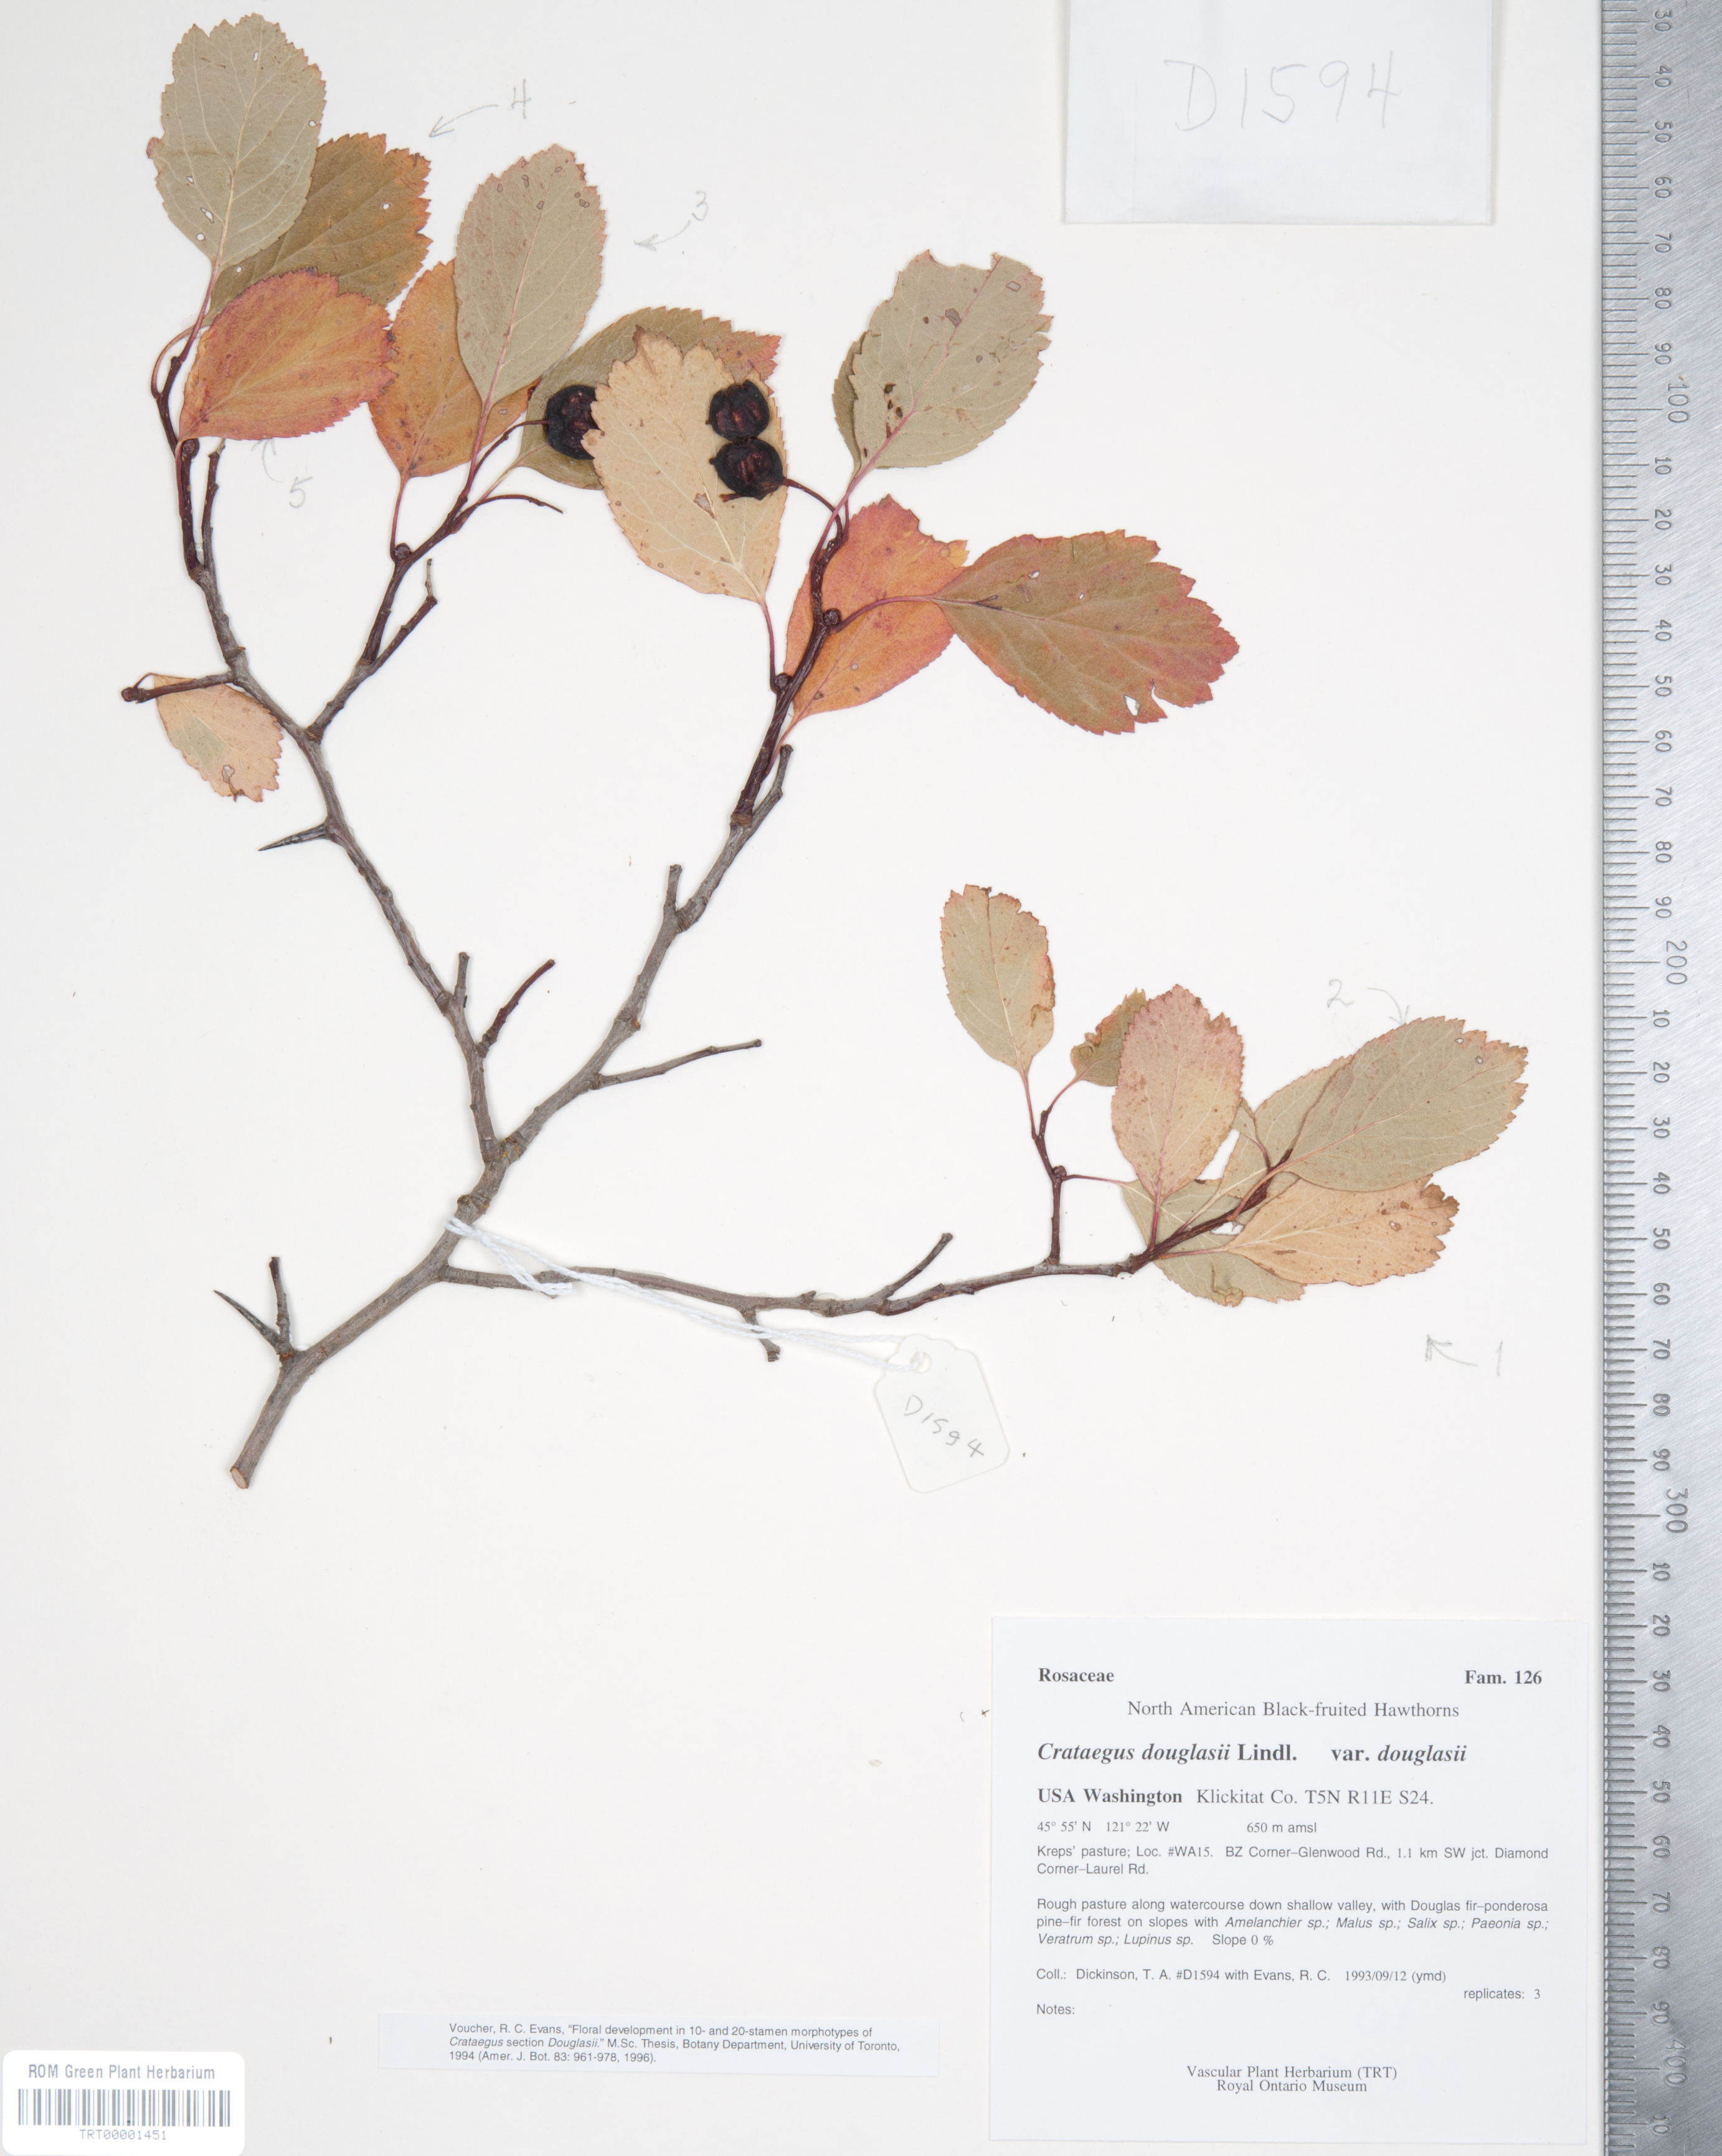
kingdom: Plantae
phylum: Tracheophyta
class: Magnoliopsida
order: Rosales
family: Rosaceae
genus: Crataegus
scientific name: Crataegus douglasii
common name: Black hawthorn
